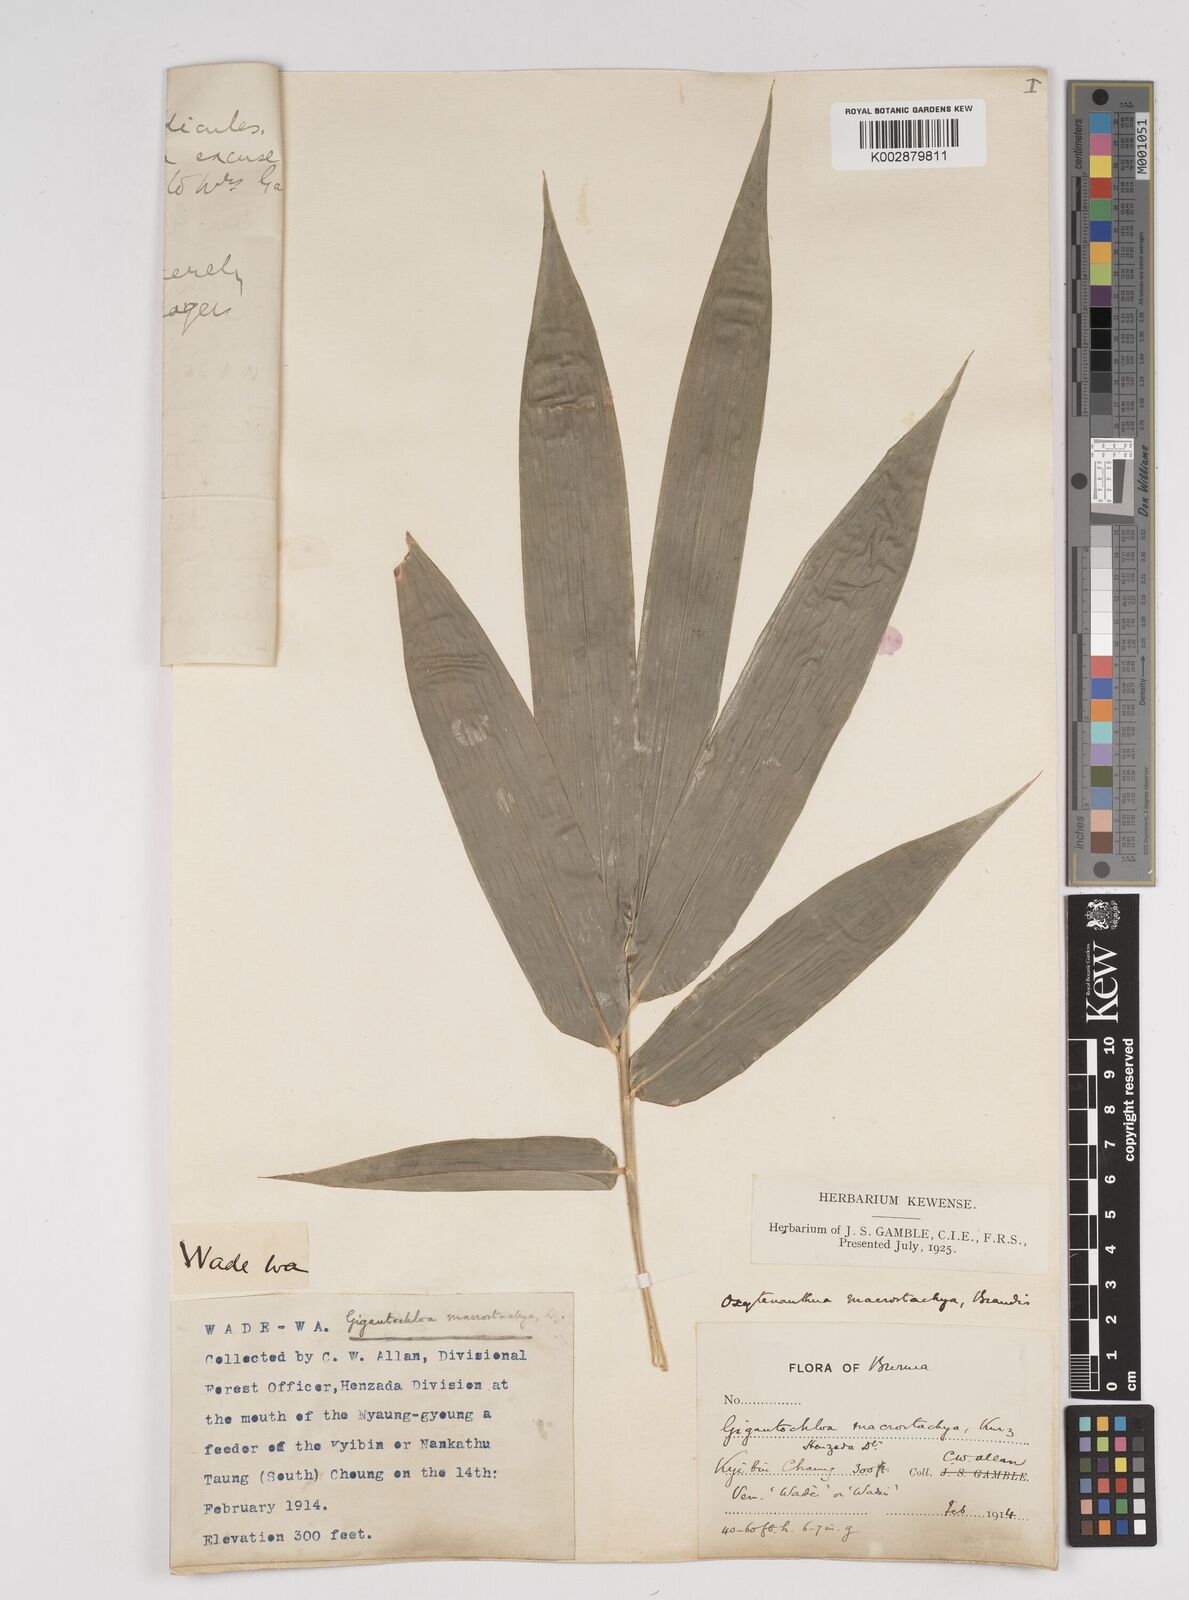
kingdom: Plantae
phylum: Tracheophyta
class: Liliopsida
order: Poales
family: Poaceae
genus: Gigantochloa
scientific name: Gigantochloa macrostachya
